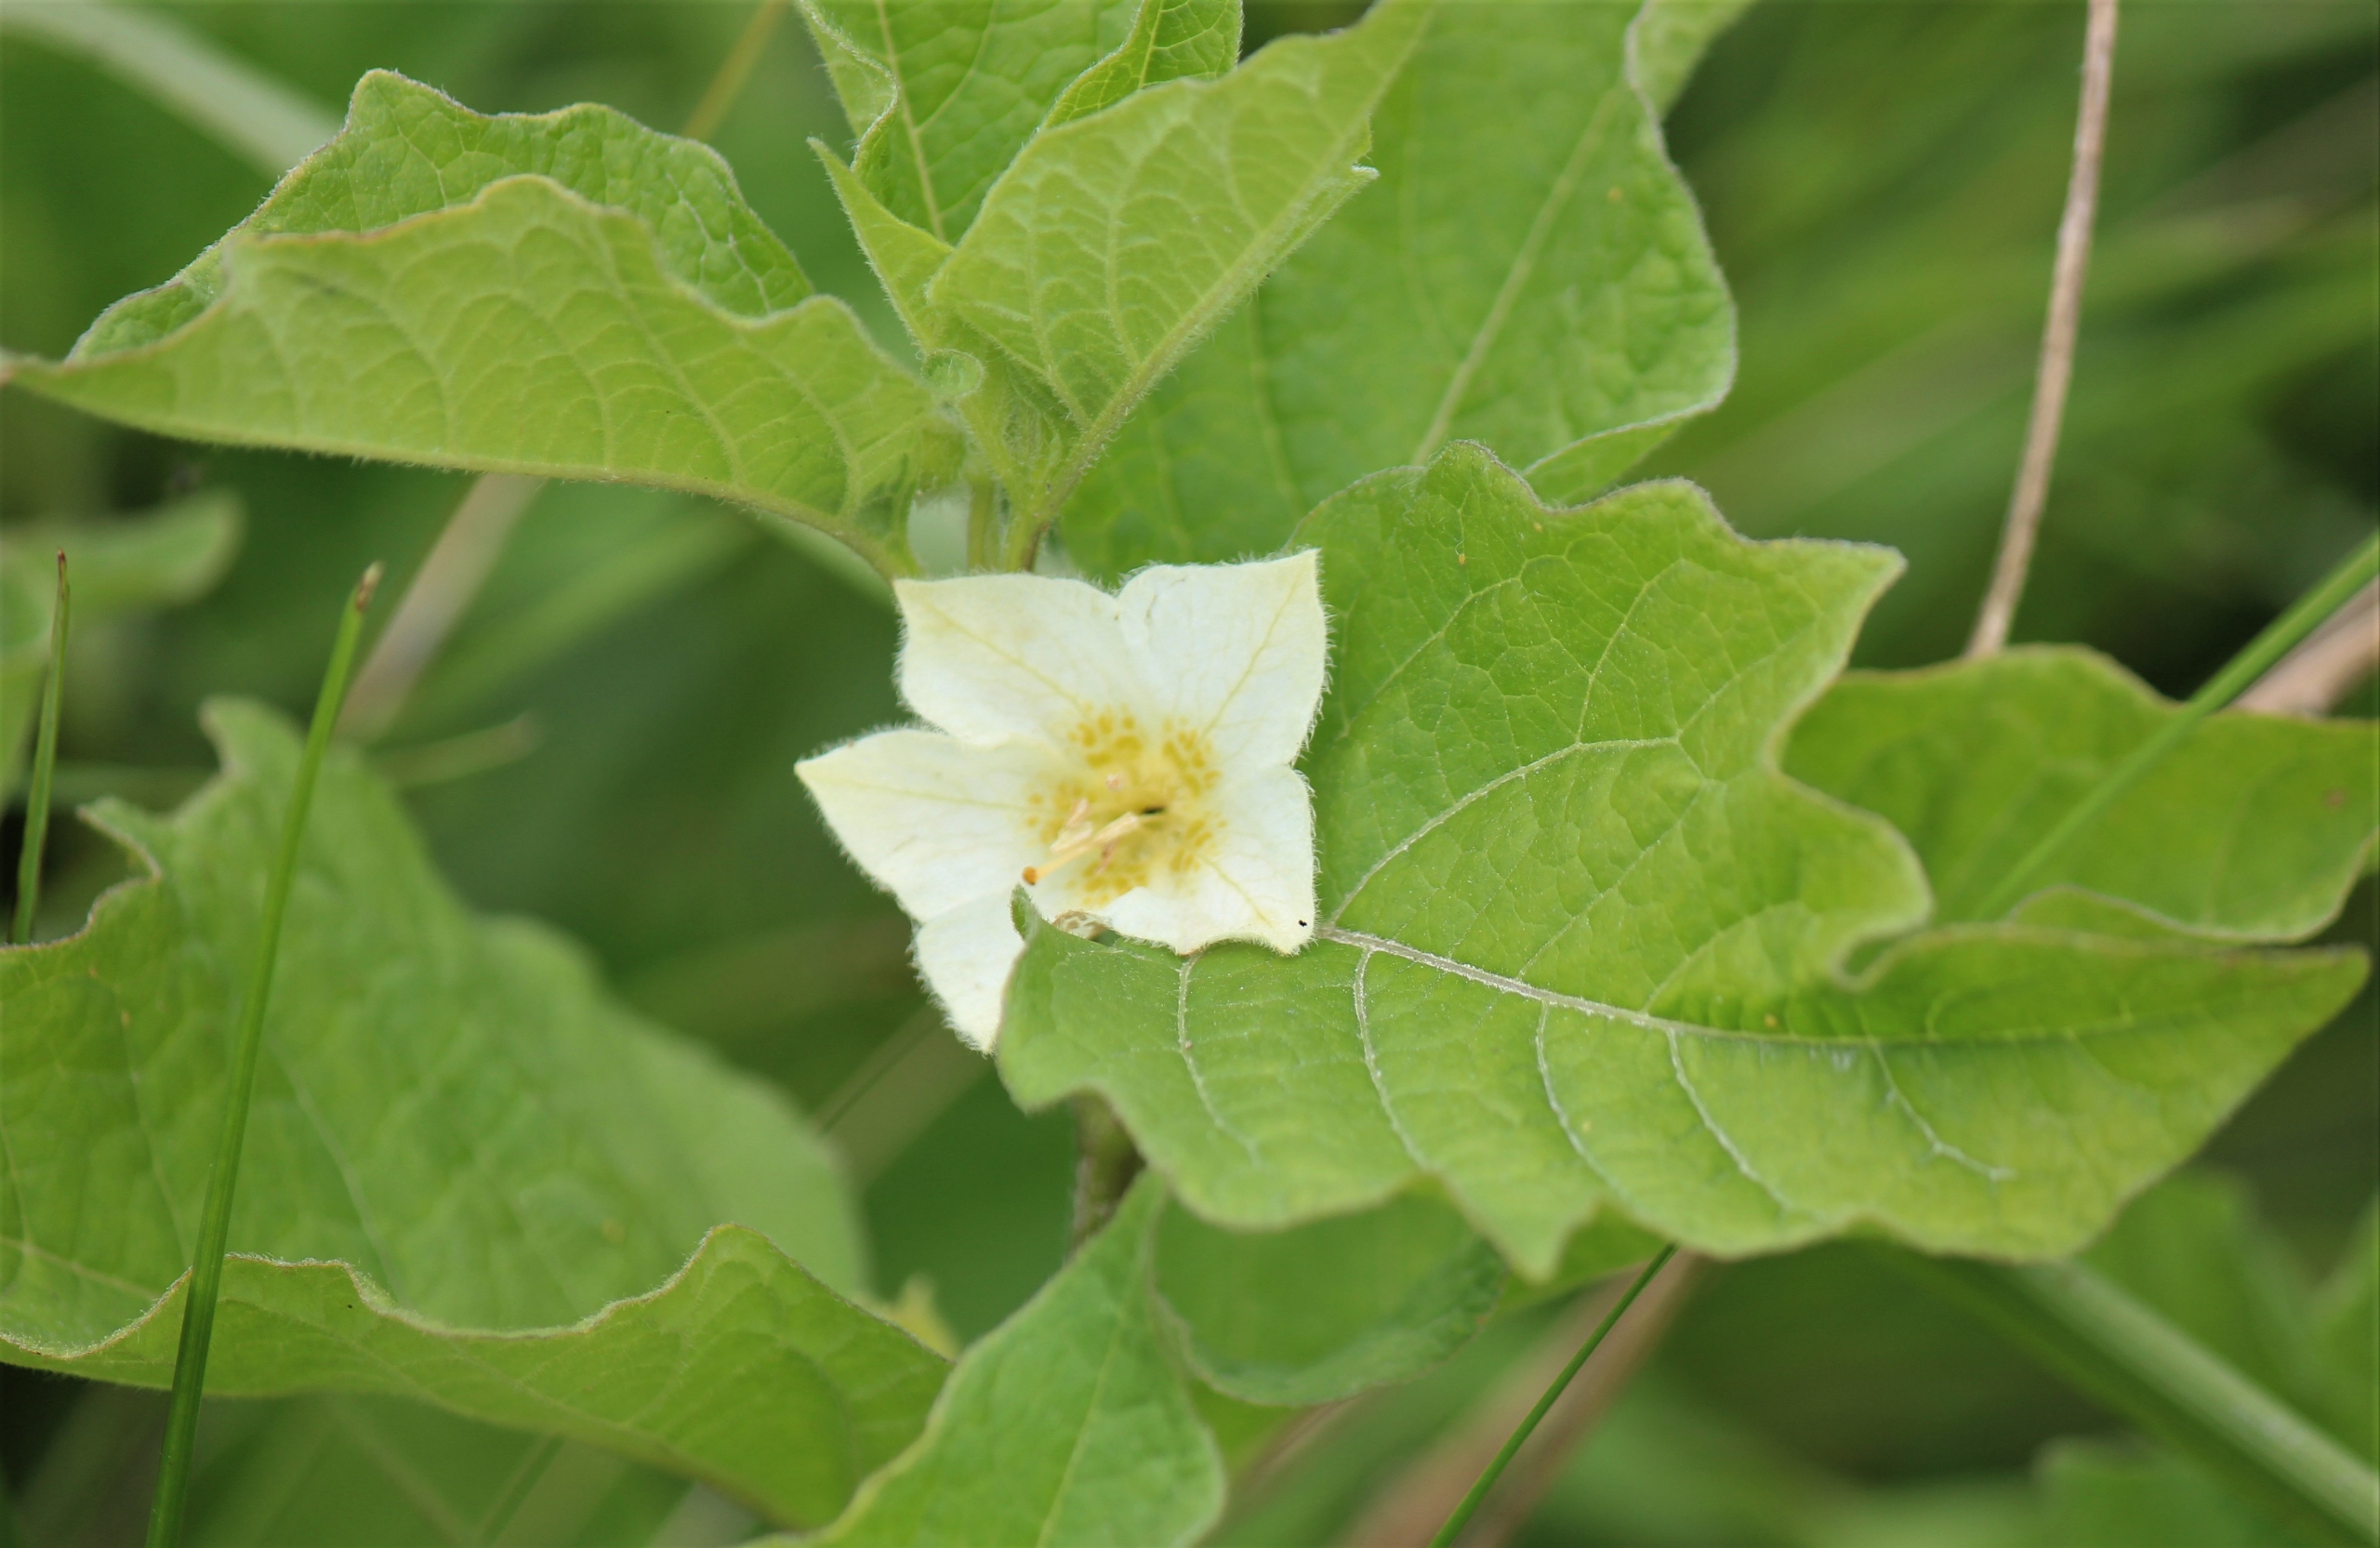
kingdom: Plantae
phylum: Tracheophyta
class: Magnoliopsida
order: Solanales
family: Solanaceae
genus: Alkekengi
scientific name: Alkekengi officinarum
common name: Jødekirsebær
